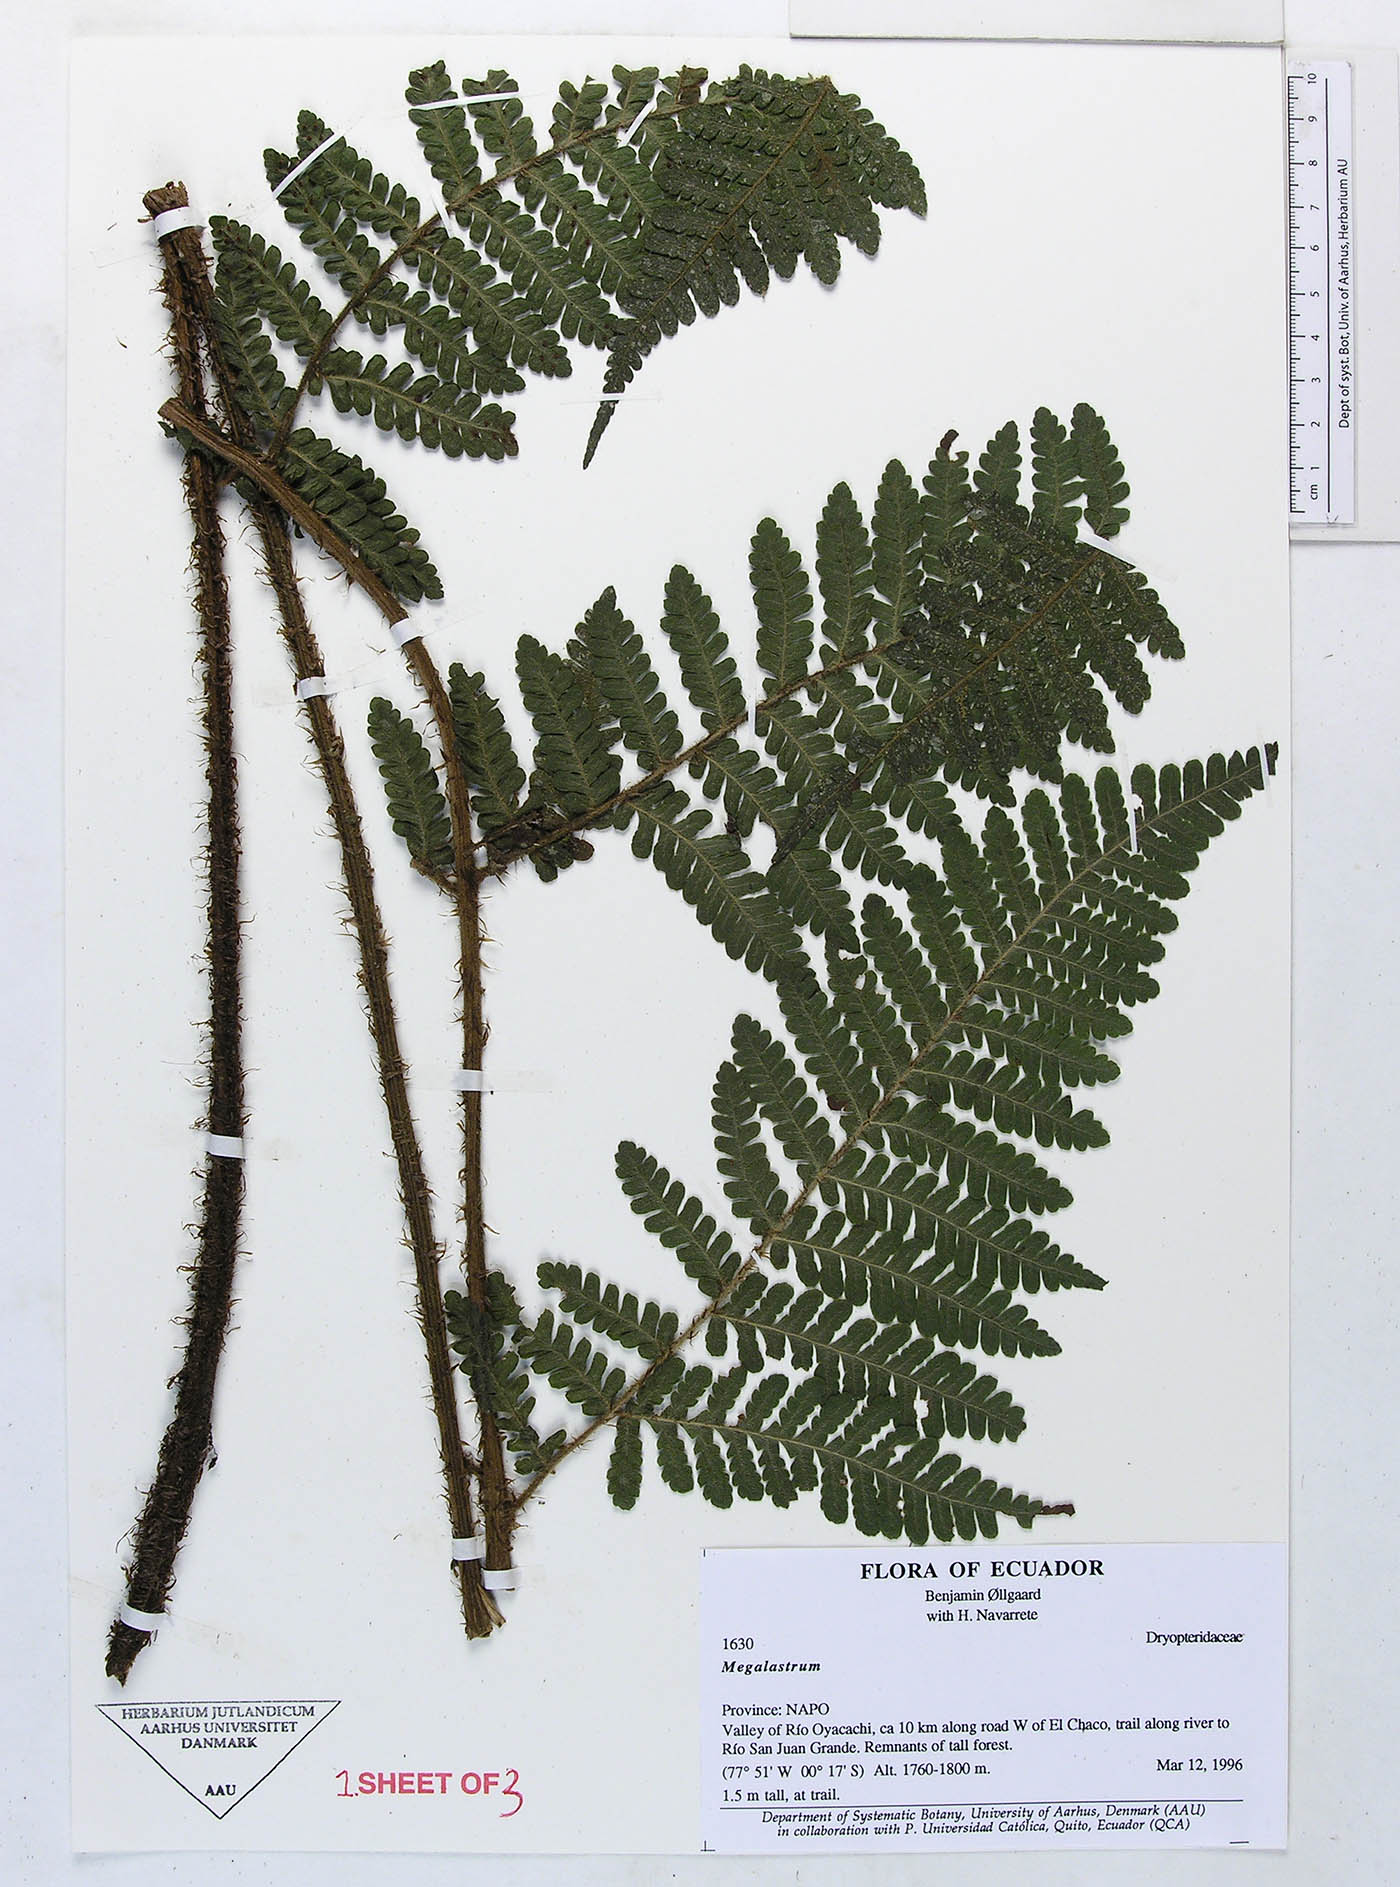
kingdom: Plantae
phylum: Tracheophyta
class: Polypodiopsida
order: Polypodiales
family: Dryopteridaceae
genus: Megalastrum
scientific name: Megalastrum insigne
